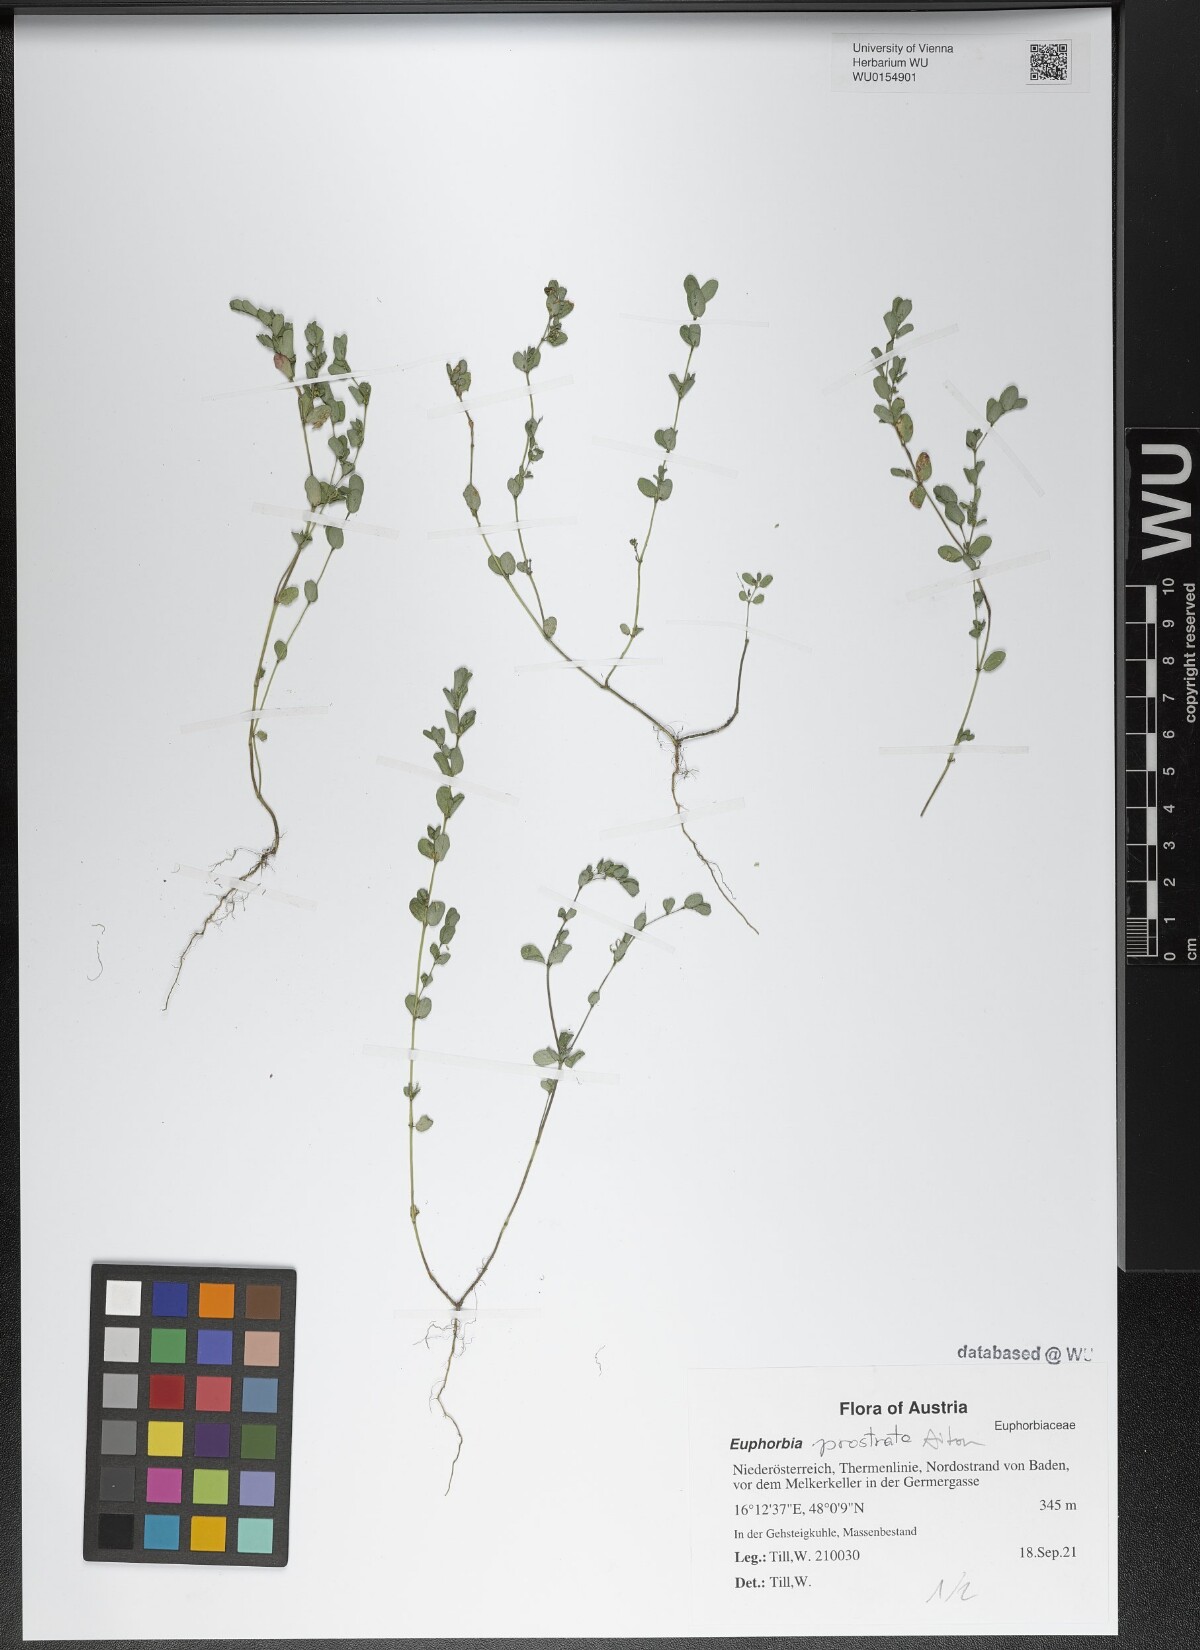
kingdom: Plantae
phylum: Tracheophyta
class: Magnoliopsida
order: Malpighiales
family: Euphorbiaceae
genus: Euphorbia
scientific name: Euphorbia prostrata
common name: Prostrate sandmat
